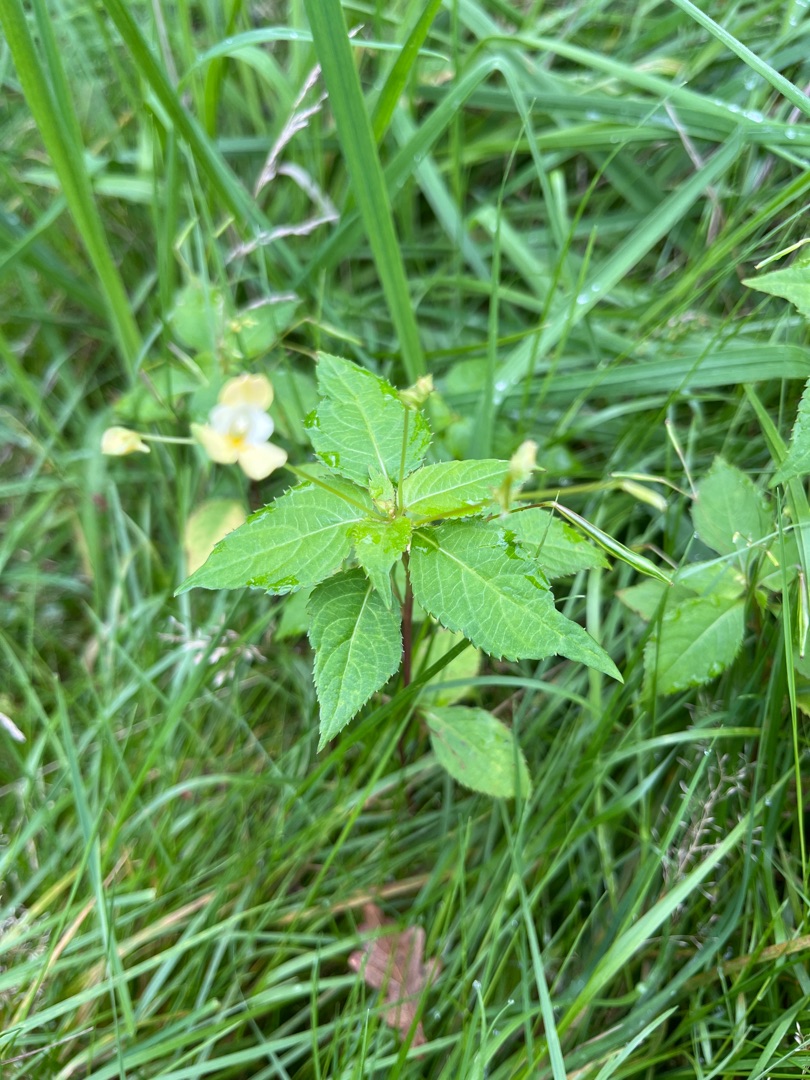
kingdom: Plantae
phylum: Tracheophyta
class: Magnoliopsida
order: Ericales
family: Balsaminaceae
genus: Impatiens
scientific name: Impatiens parviflora
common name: Småblomstret balsamin
